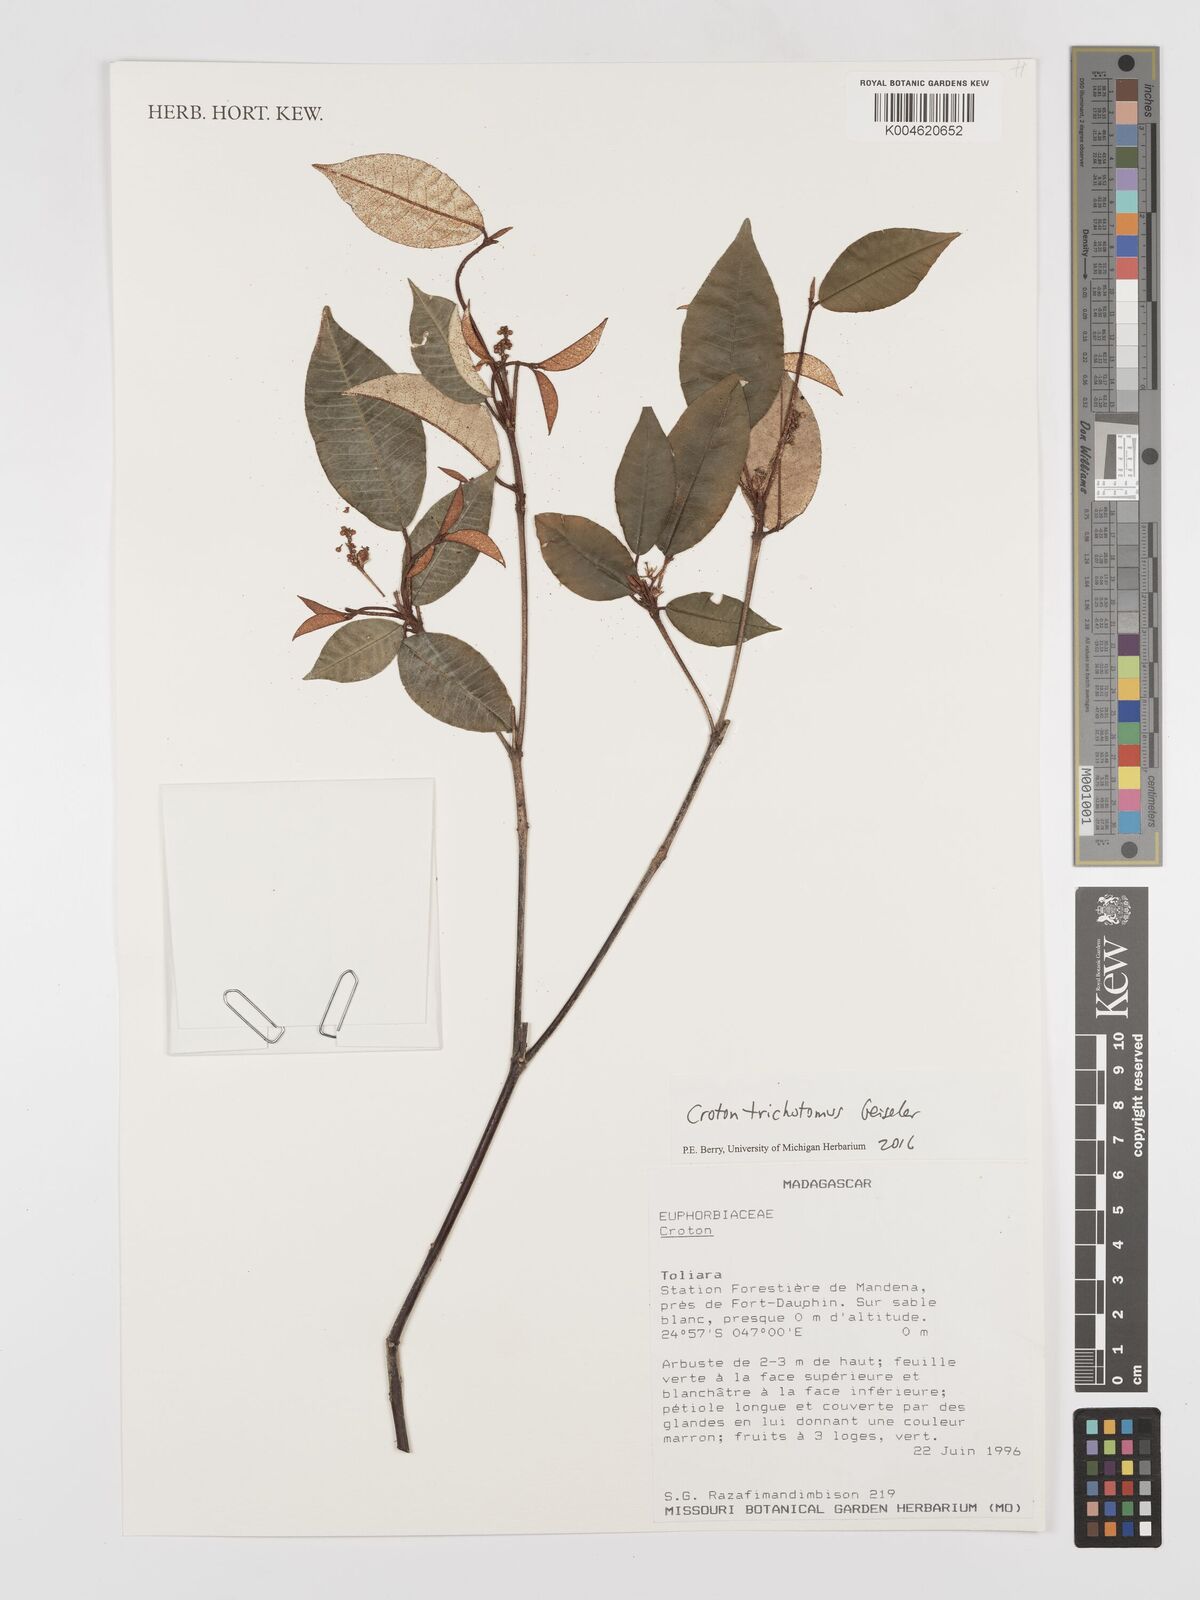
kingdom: Plantae
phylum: Tracheophyta
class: Magnoliopsida
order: Malpighiales
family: Euphorbiaceae
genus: Croton
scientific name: Croton trichotomus
